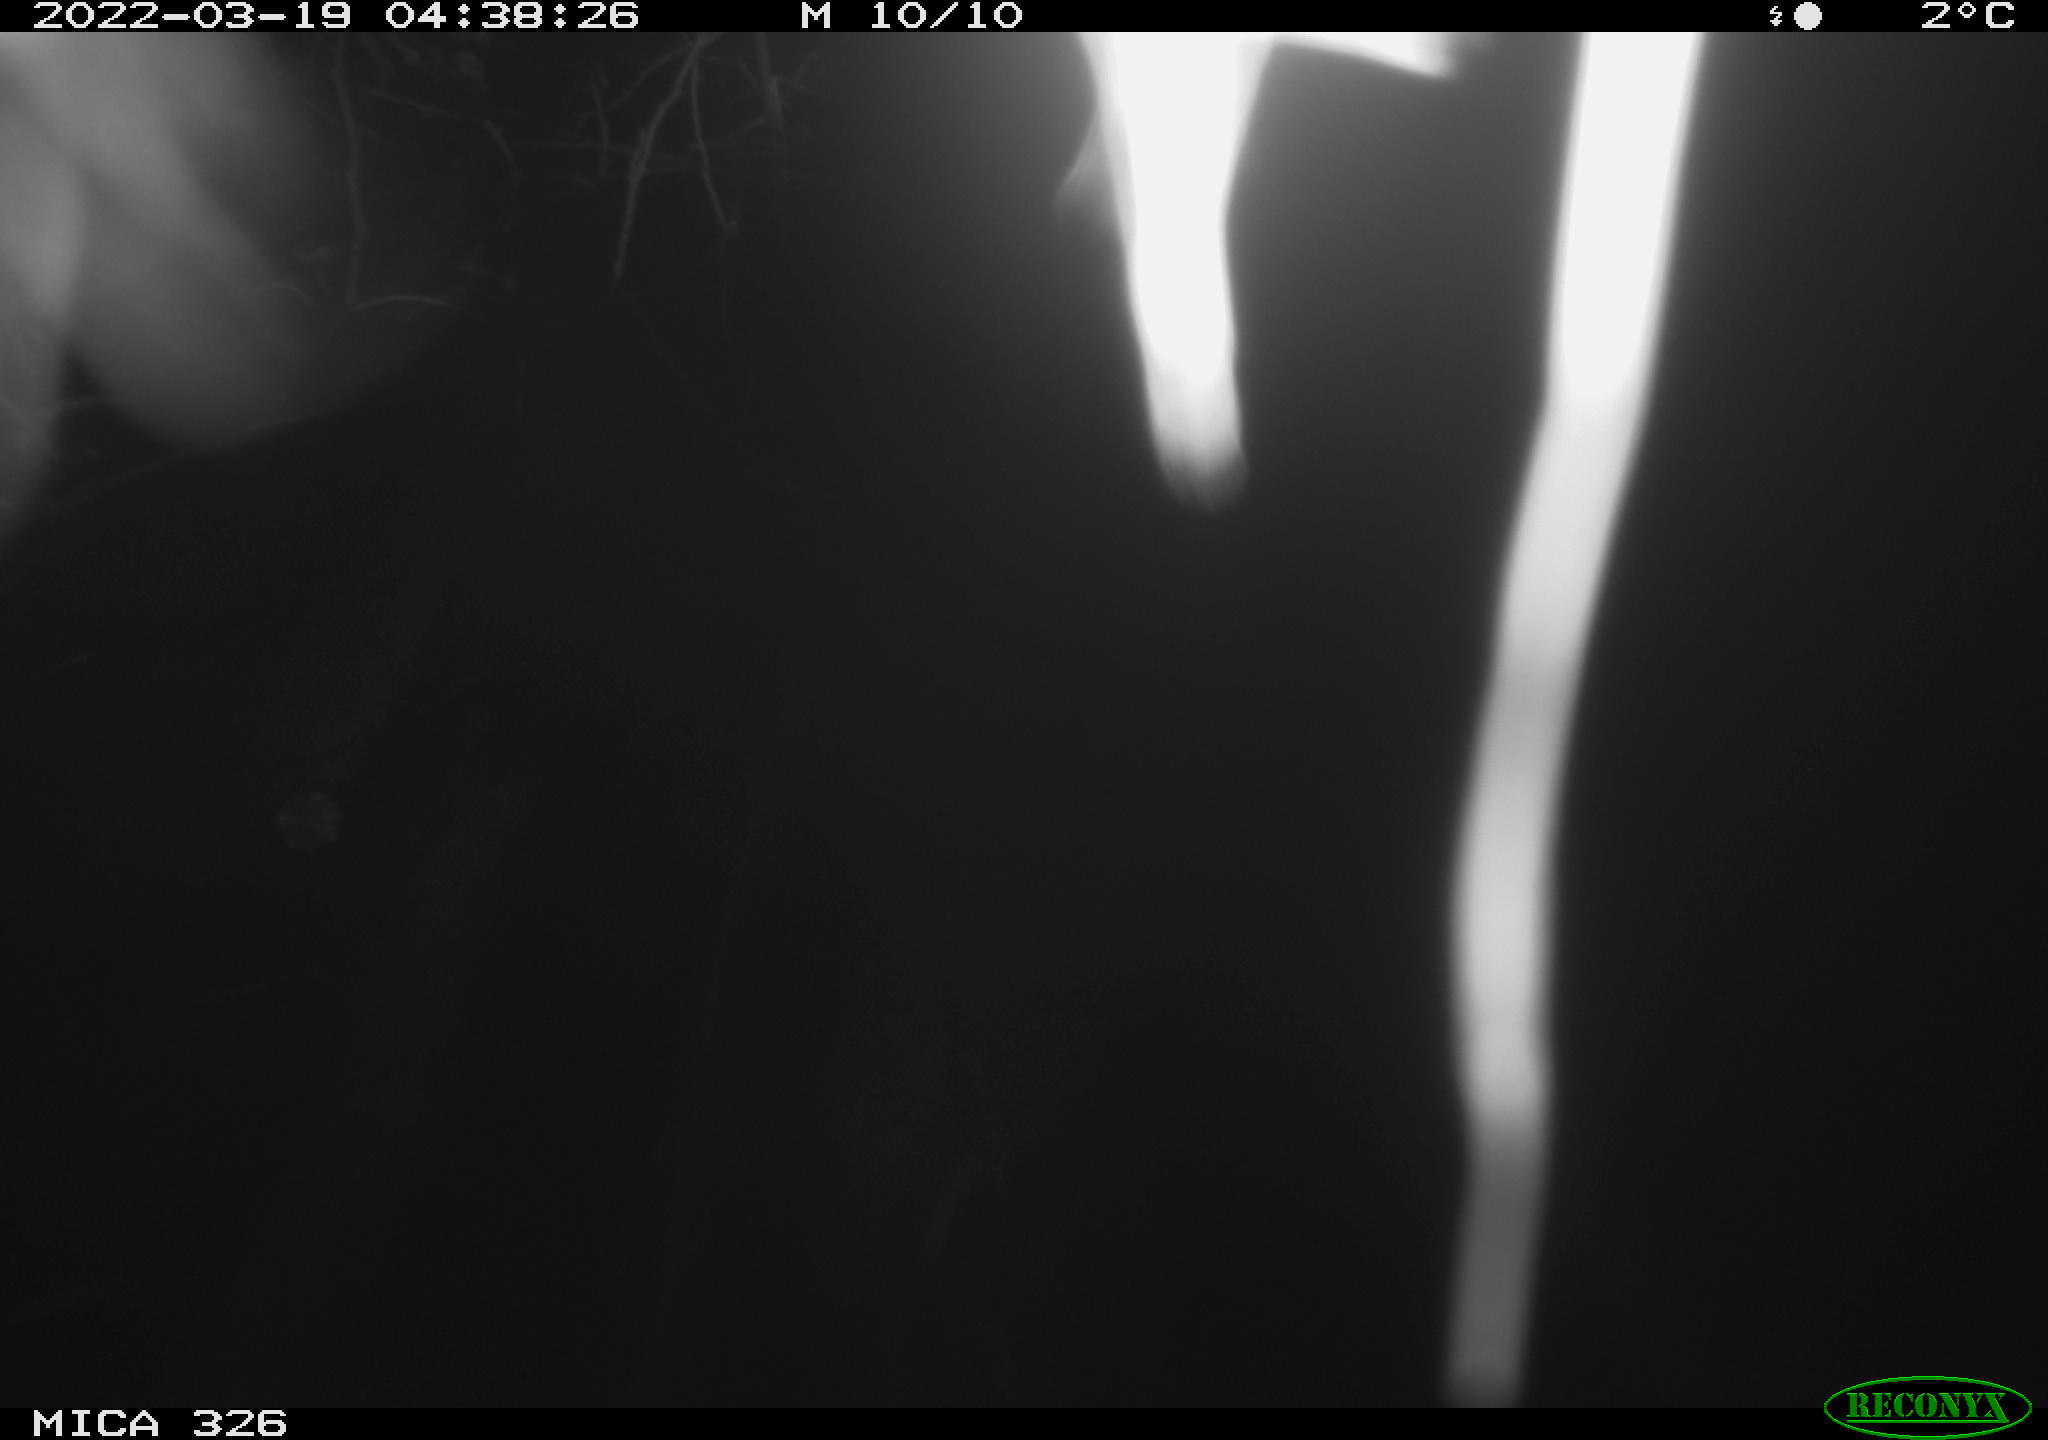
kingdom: Animalia
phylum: Chordata
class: Mammalia
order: Rodentia
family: Muridae
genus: Rattus
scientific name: Rattus norvegicus
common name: Brown rat
